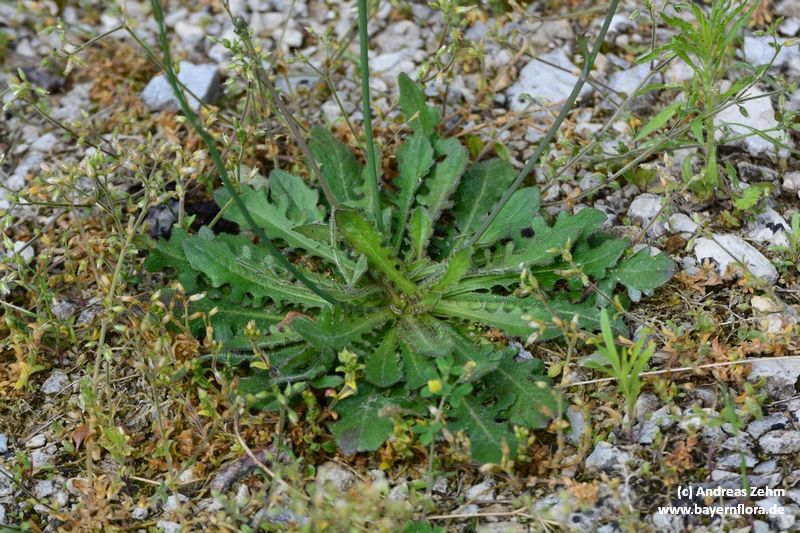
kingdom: Plantae
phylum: Tracheophyta
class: Magnoliopsida
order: Asterales
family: Asteraceae
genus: Hypochaeris
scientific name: Hypochaeris radicata
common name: Flatweed
